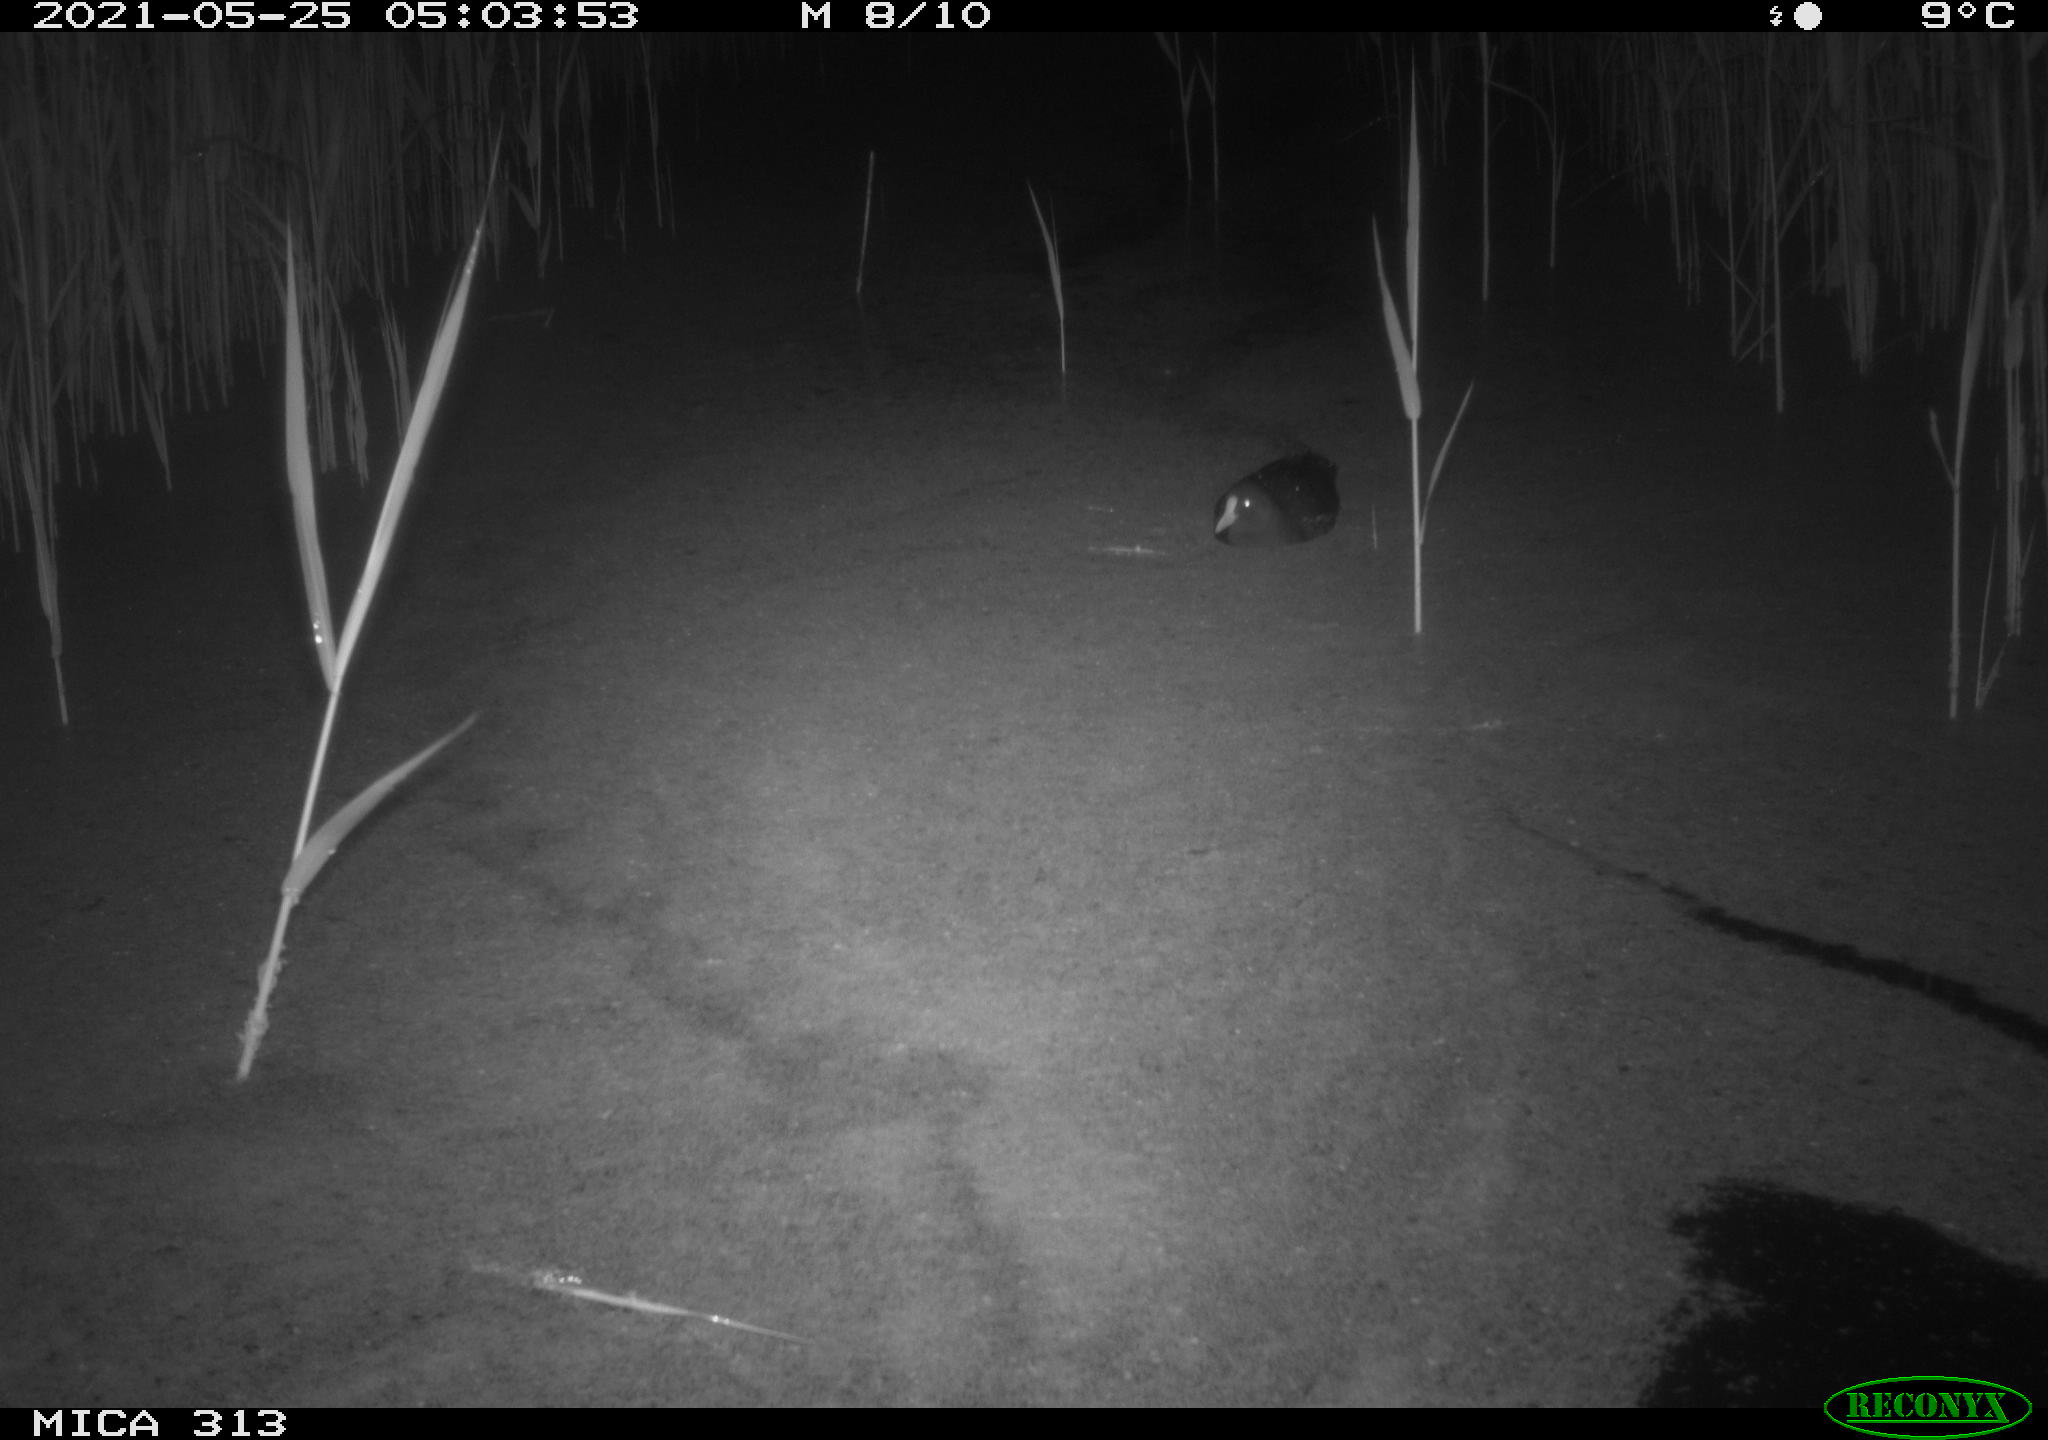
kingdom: Animalia
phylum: Chordata
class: Aves
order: Anseriformes
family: Anatidae
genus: Anas
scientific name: Anas platyrhynchos
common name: Mallard
